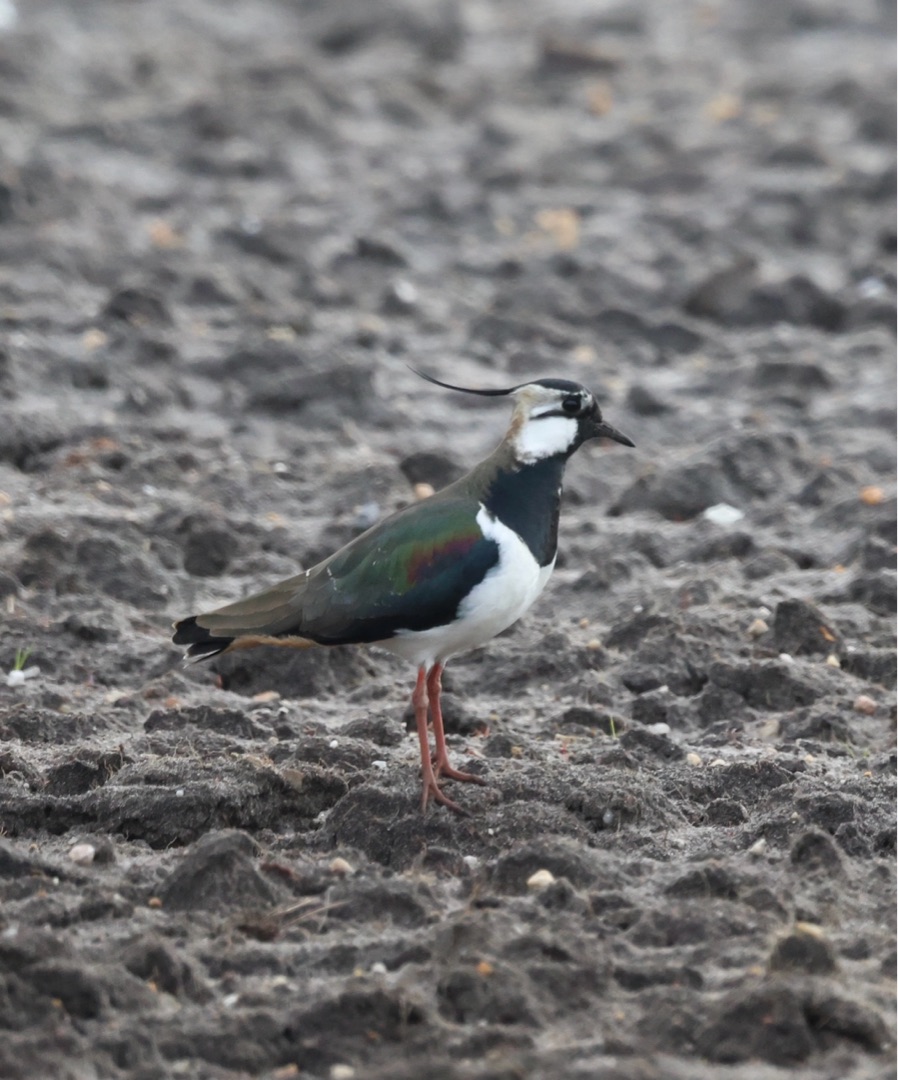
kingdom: Animalia
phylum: Chordata
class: Aves
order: Charadriiformes
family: Charadriidae
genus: Vanellus
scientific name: Vanellus vanellus
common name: Vibe
